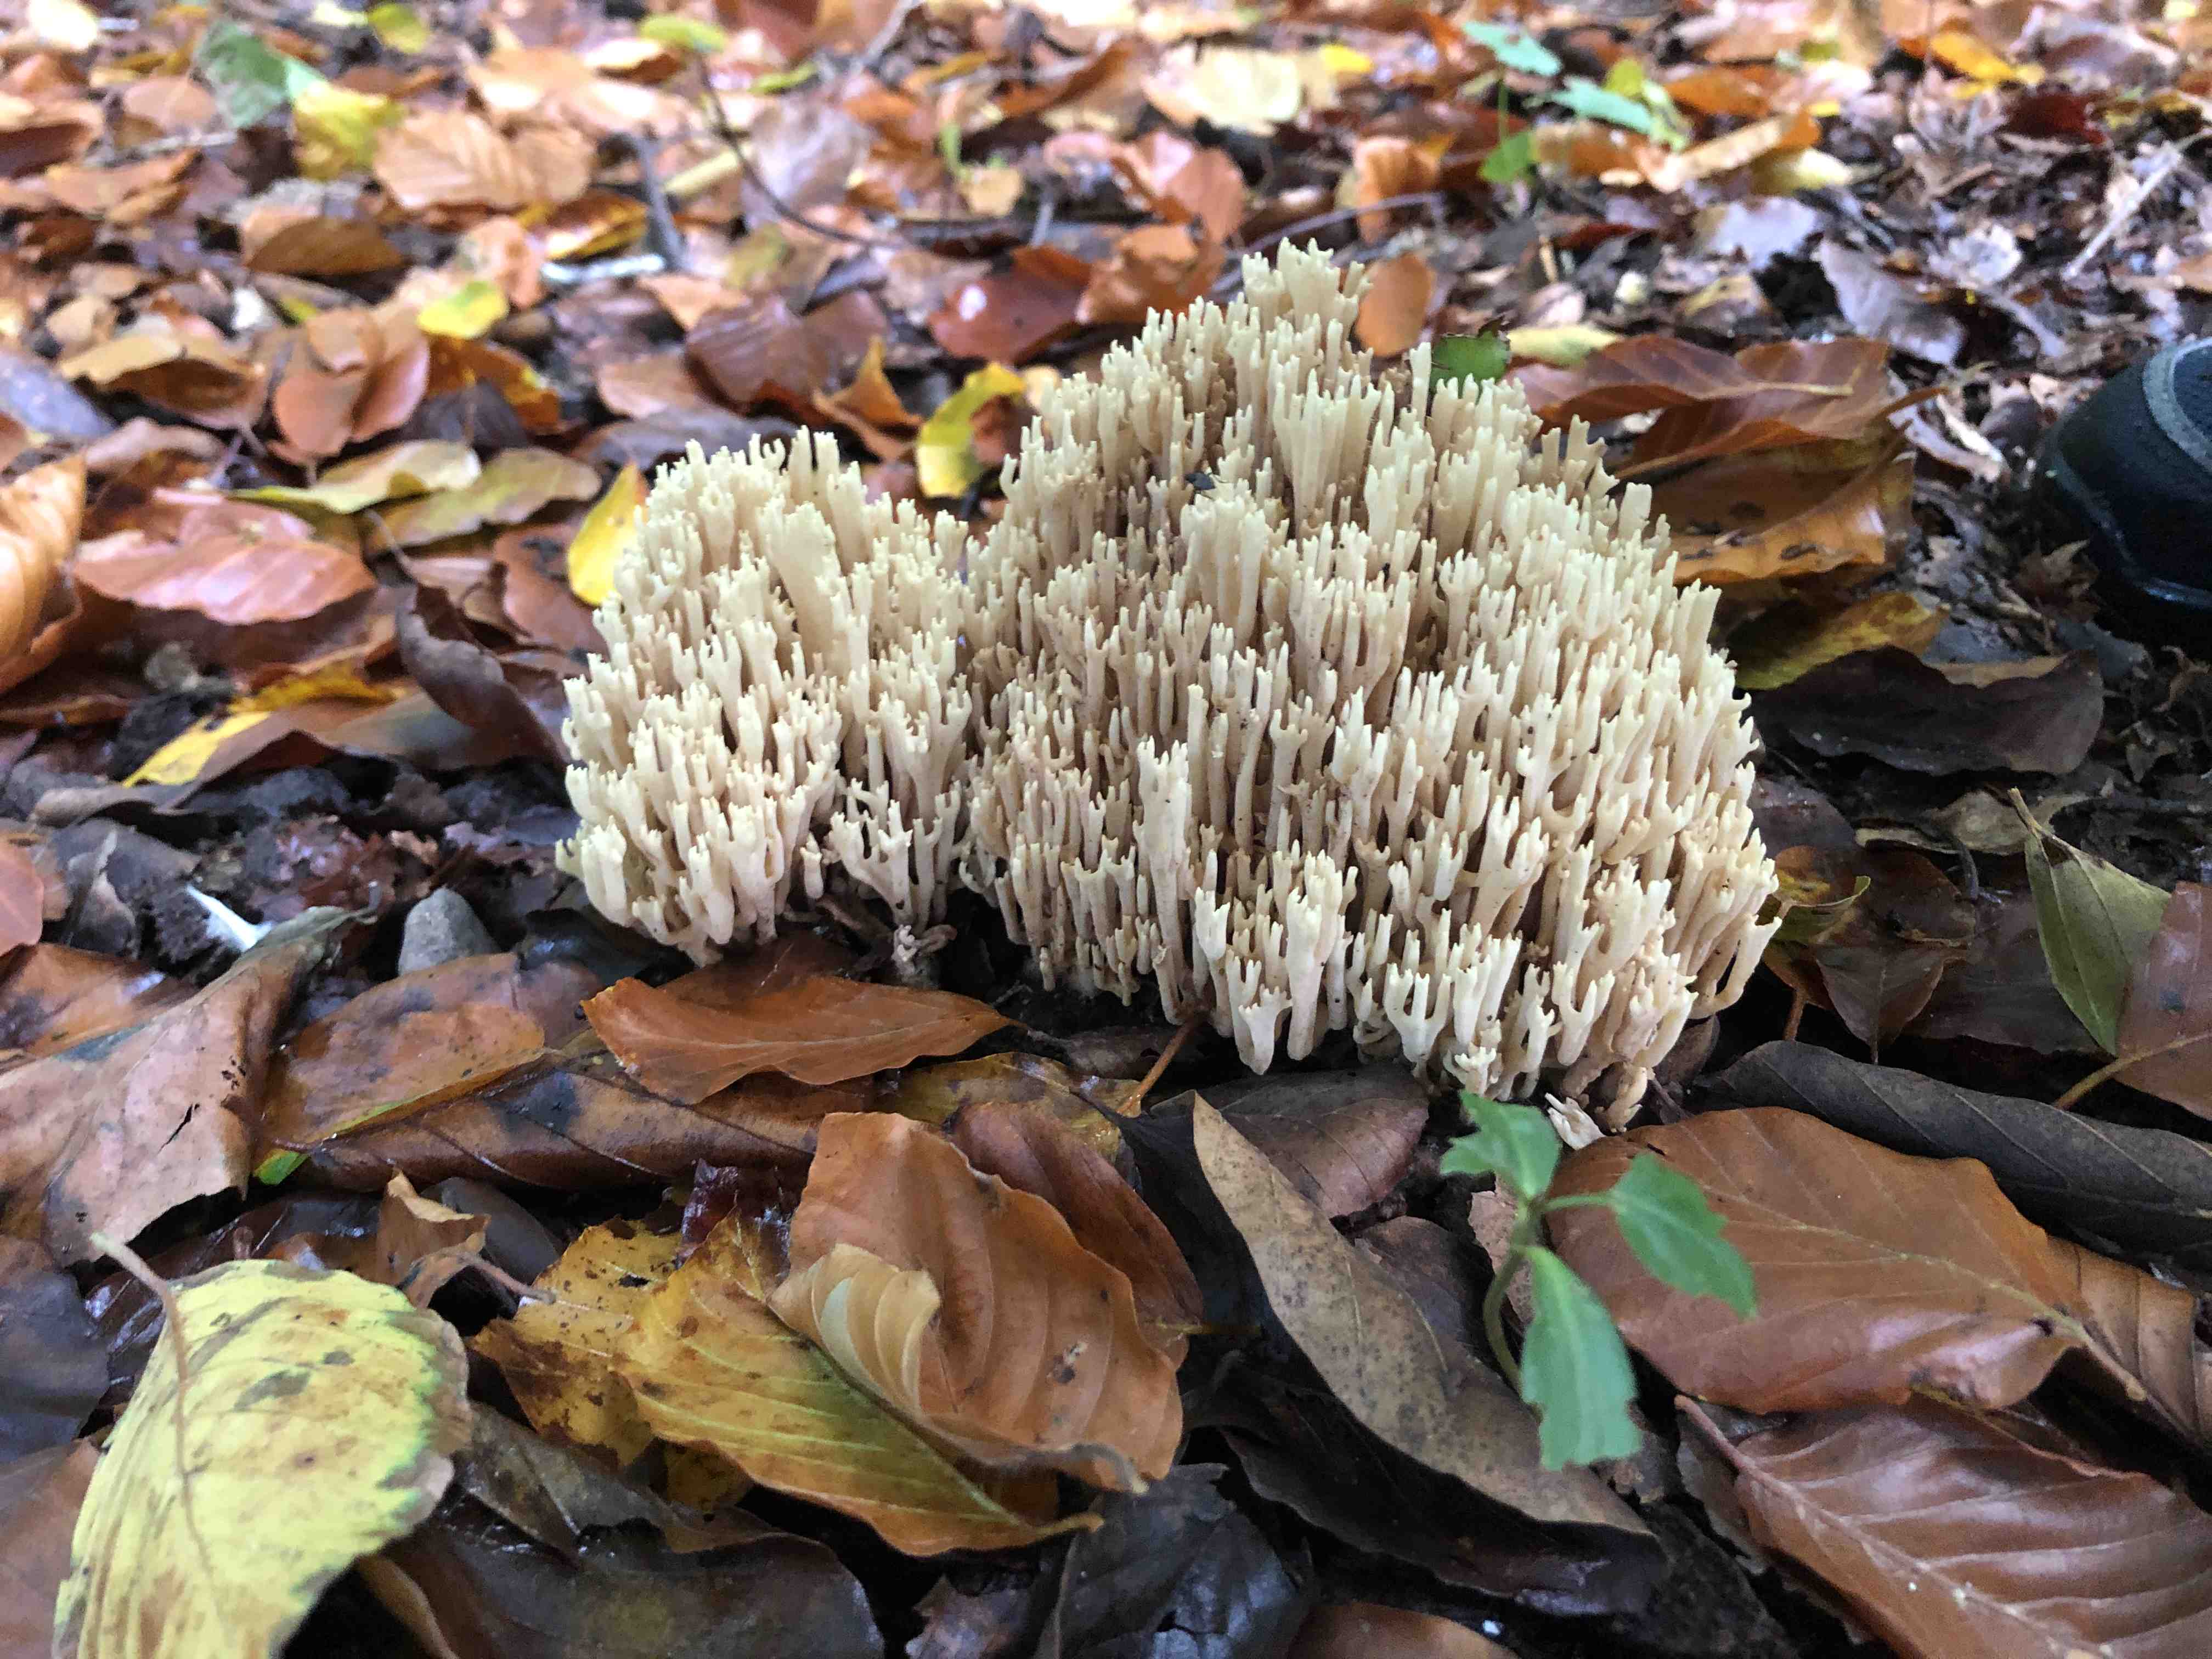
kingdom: Fungi
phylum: Basidiomycota
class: Agaricomycetes
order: Gomphales
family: Gomphaceae
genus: Ramaria
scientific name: Ramaria stricta
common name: rank koralsvamp
